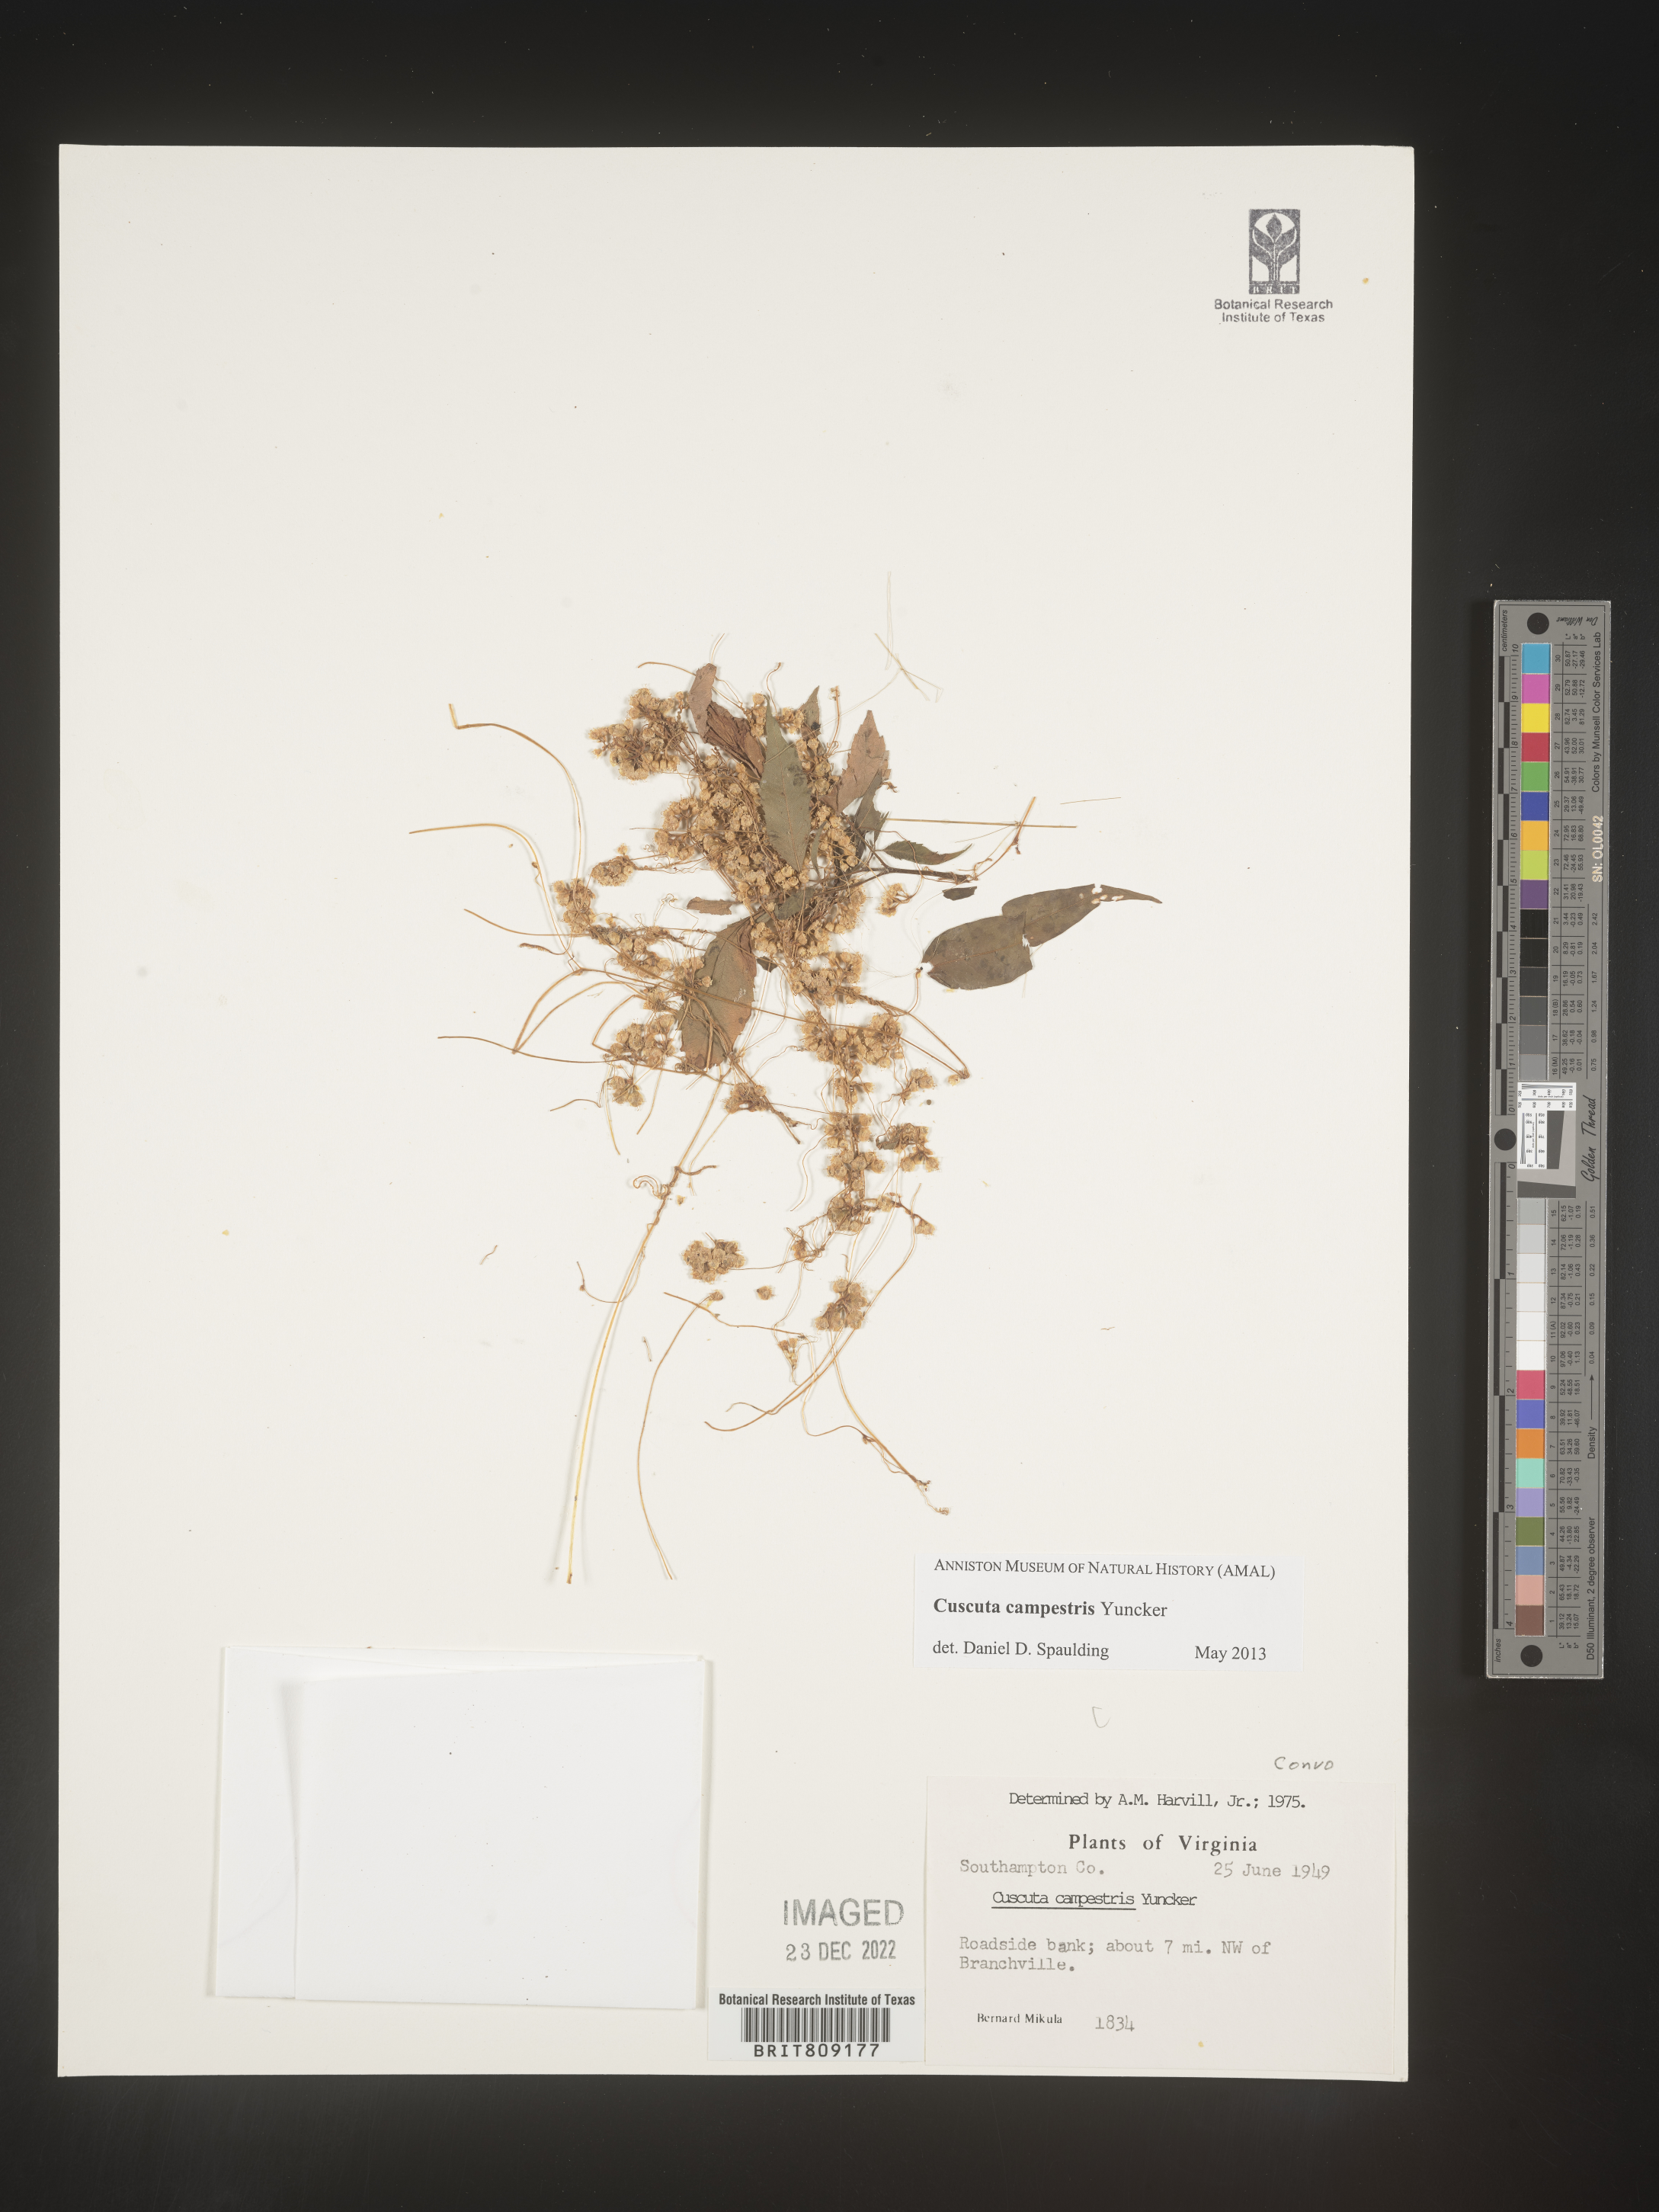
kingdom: Plantae
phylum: Tracheophyta
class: Magnoliopsida
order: Solanales
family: Convolvulaceae
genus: Cuscuta
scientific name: Cuscuta campestris
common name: Yellow dodder
